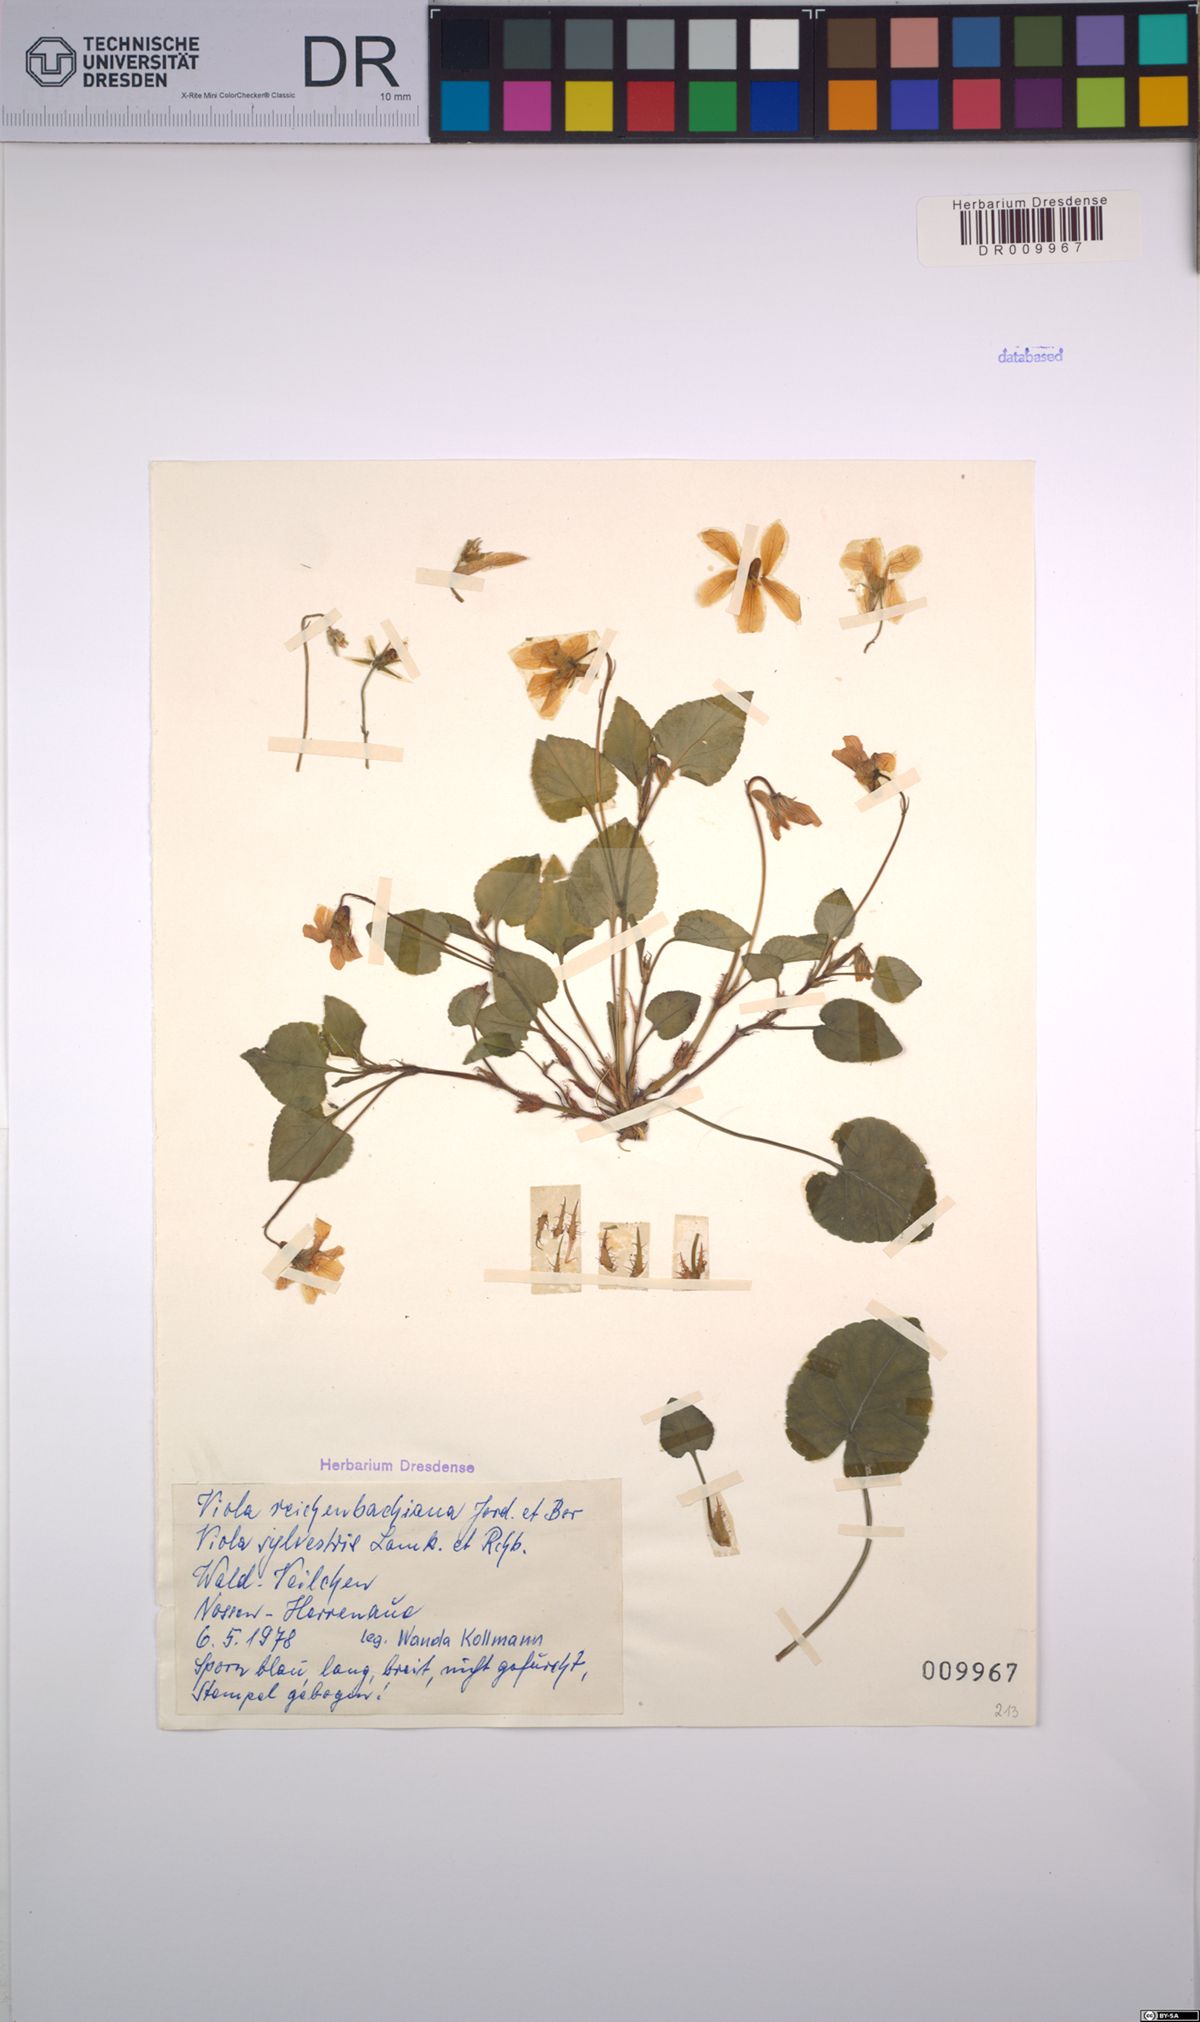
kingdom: Plantae
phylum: Tracheophyta
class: Magnoliopsida
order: Malpighiales
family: Violaceae
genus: Viola
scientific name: Viola reichenbachiana
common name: Early dog-violet
